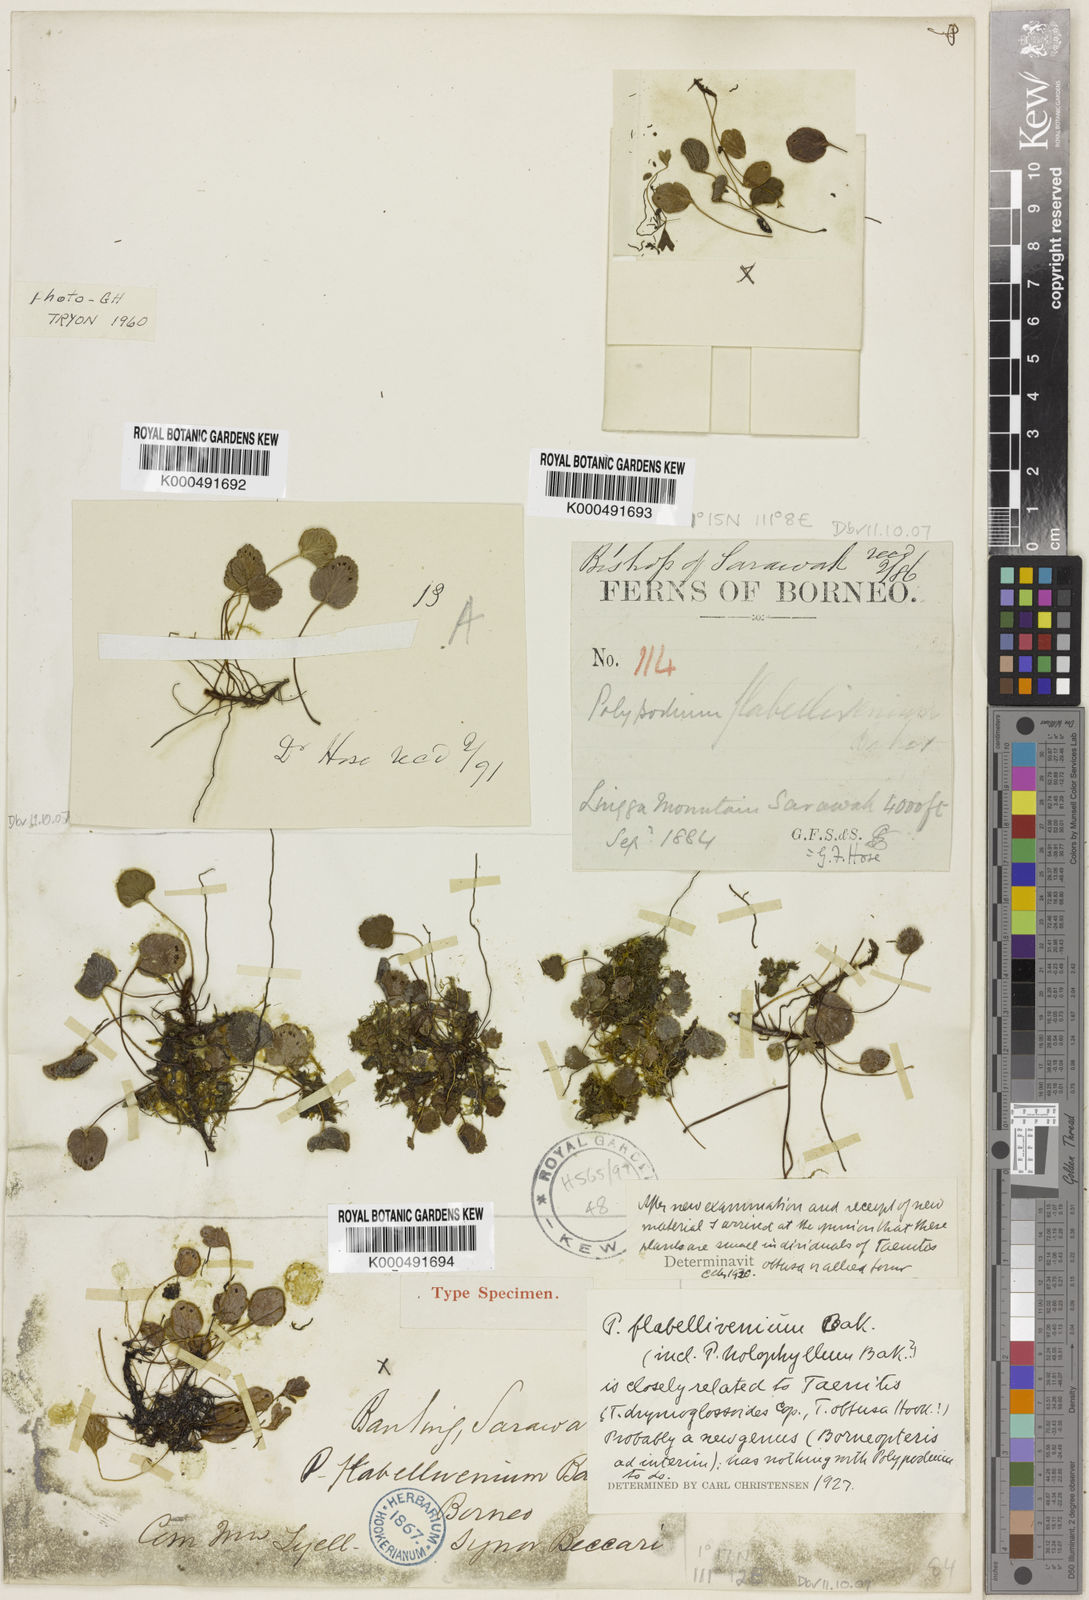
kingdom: Plantae
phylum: Tracheophyta
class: Polypodiopsida
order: Polypodiales
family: Pteridaceae
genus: Taenitis
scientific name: Taenitis flabellivenia
